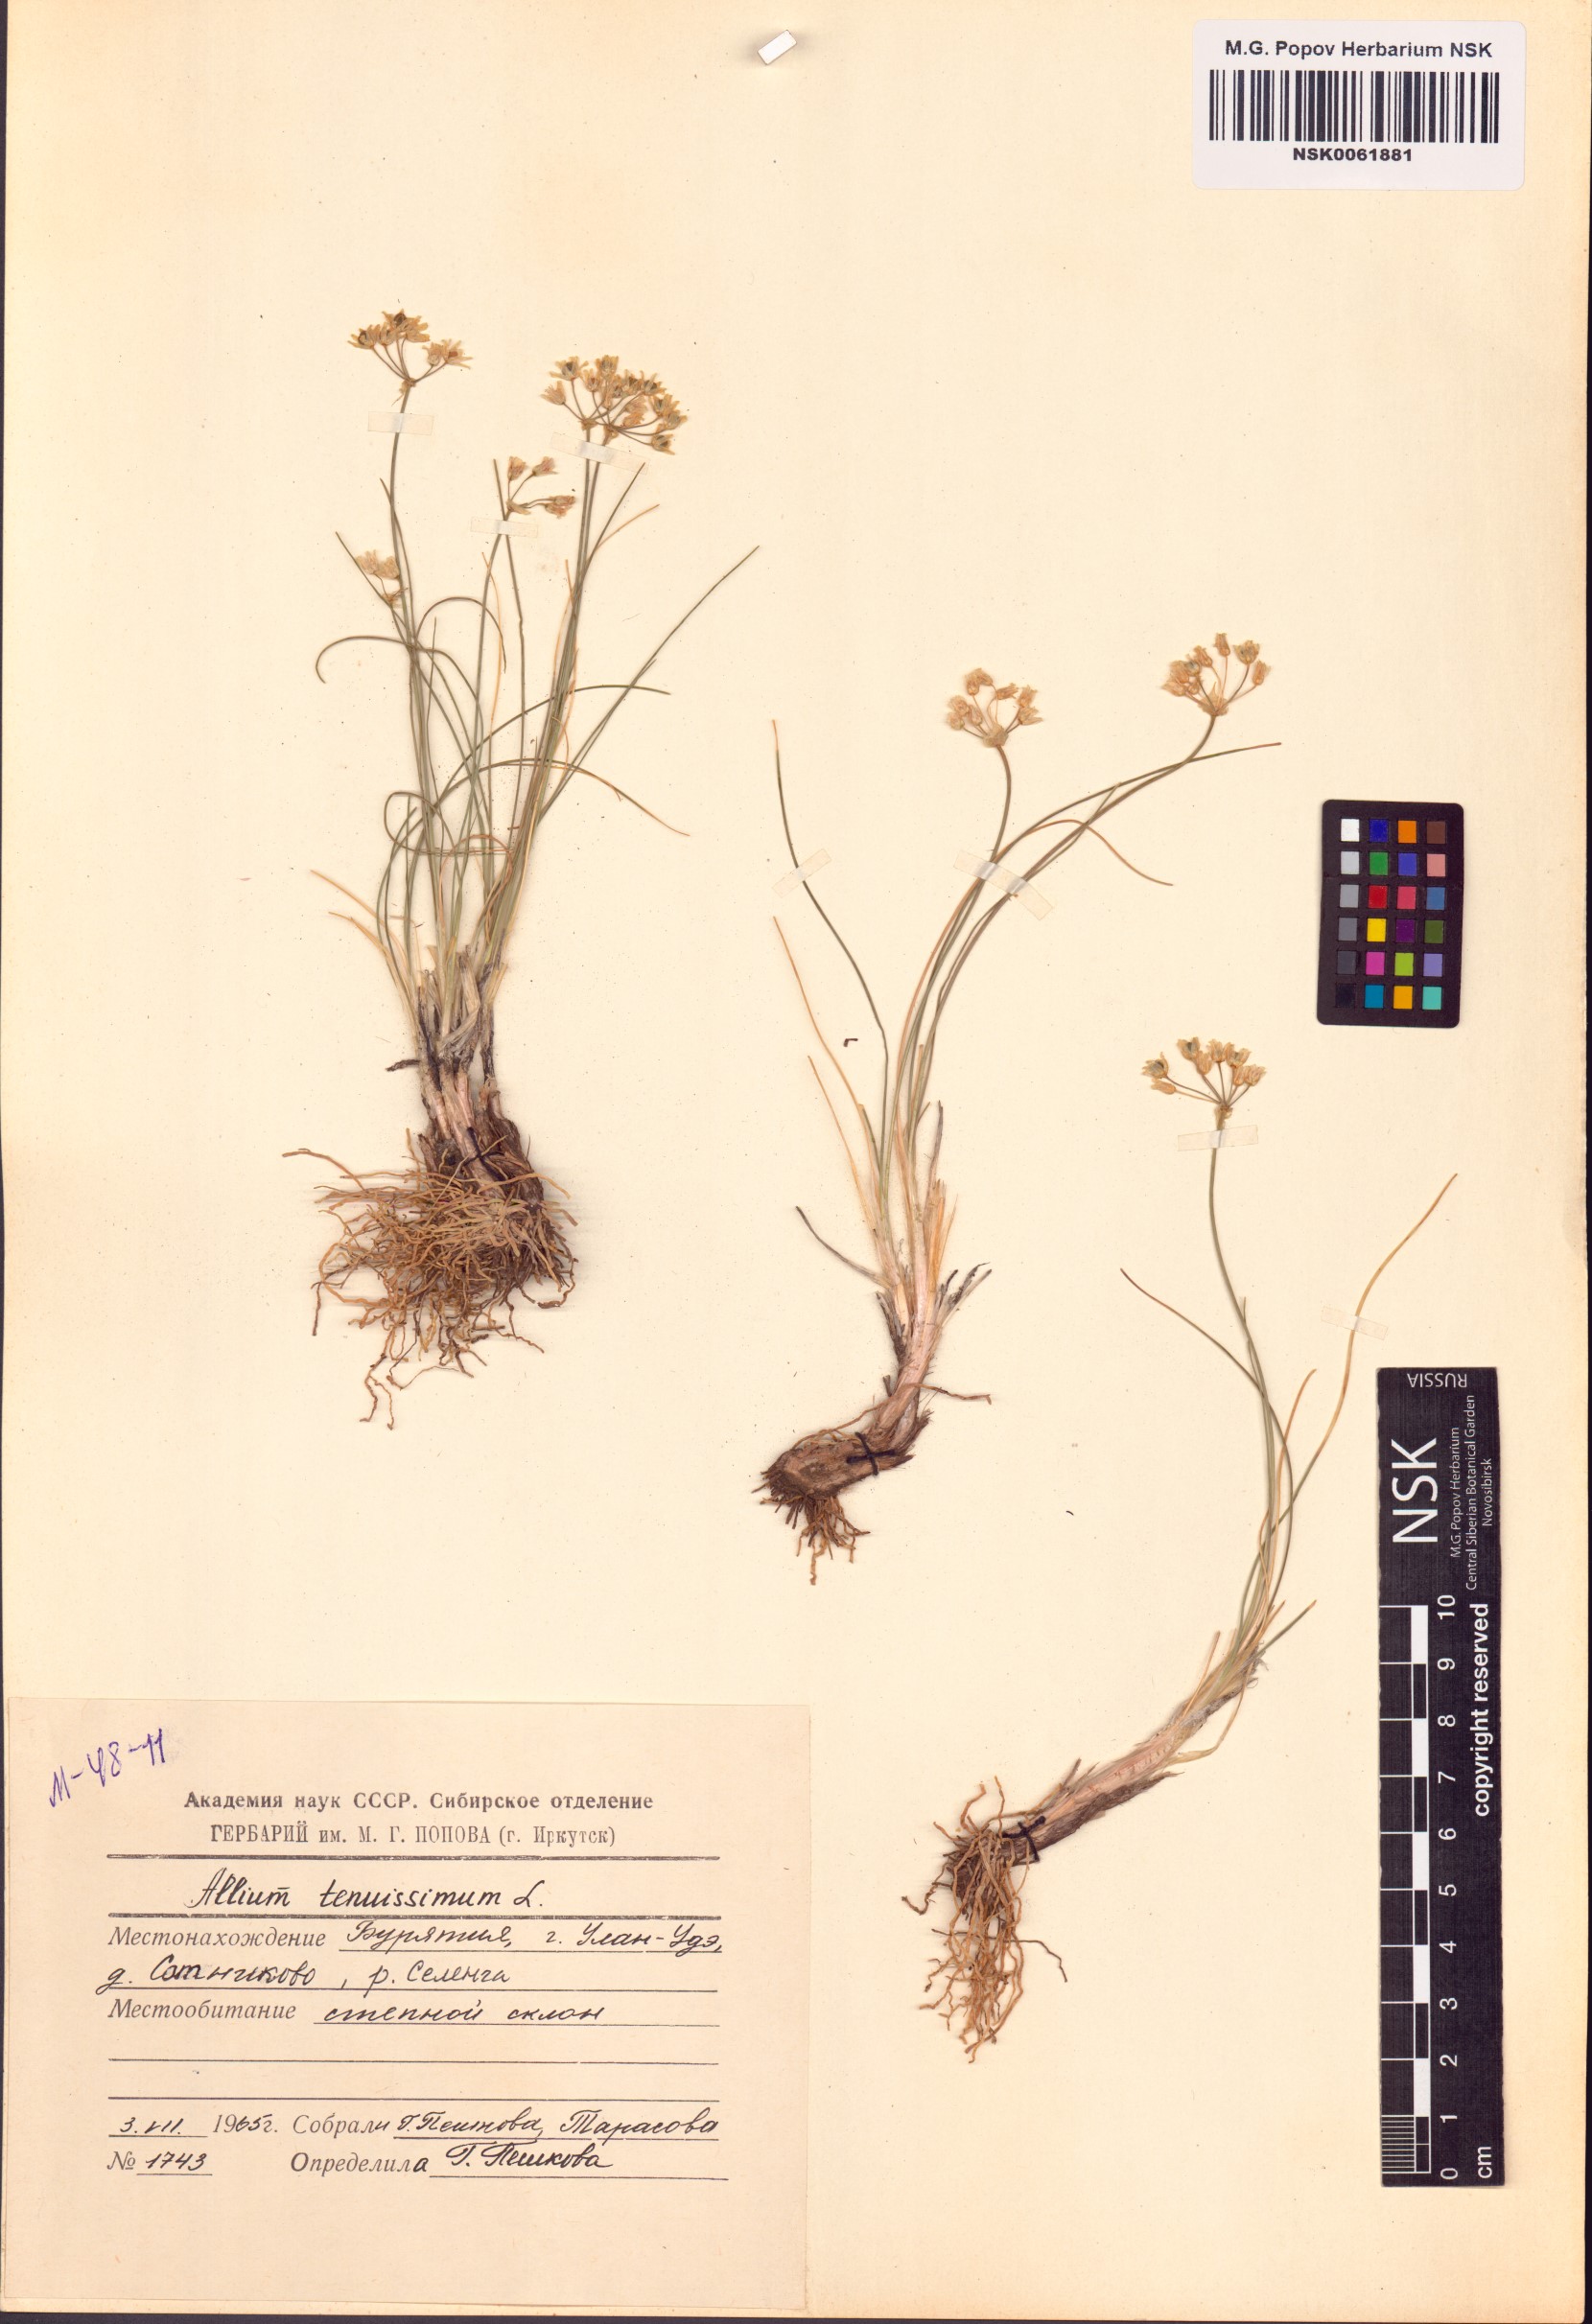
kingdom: Plantae
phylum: Tracheophyta
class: Liliopsida
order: Asparagales
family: Amaryllidaceae
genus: Allium
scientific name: Allium tenuissimum
